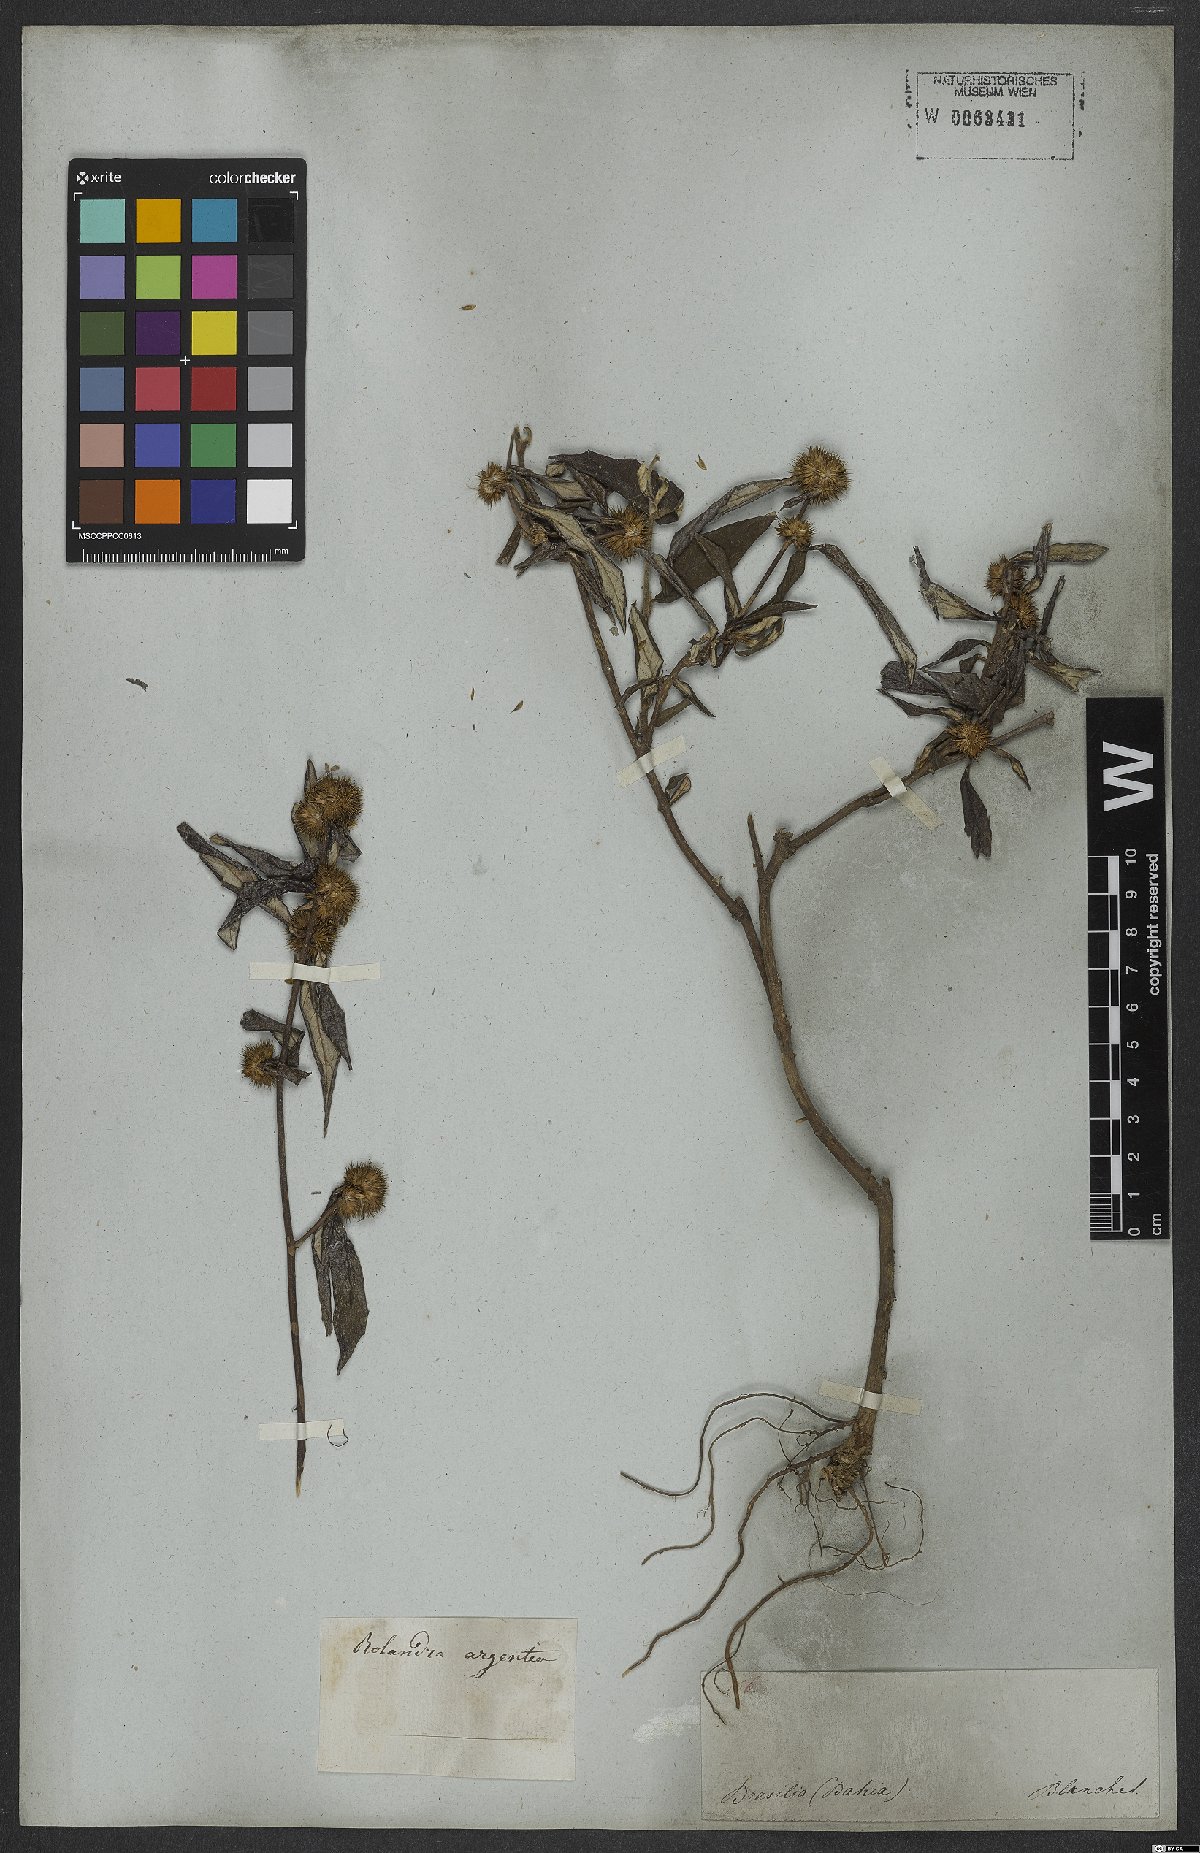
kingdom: Plantae
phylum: Tracheophyta
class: Magnoliopsida
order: Asterales
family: Asteraceae
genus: Rolandra
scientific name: Rolandra fruticosa
